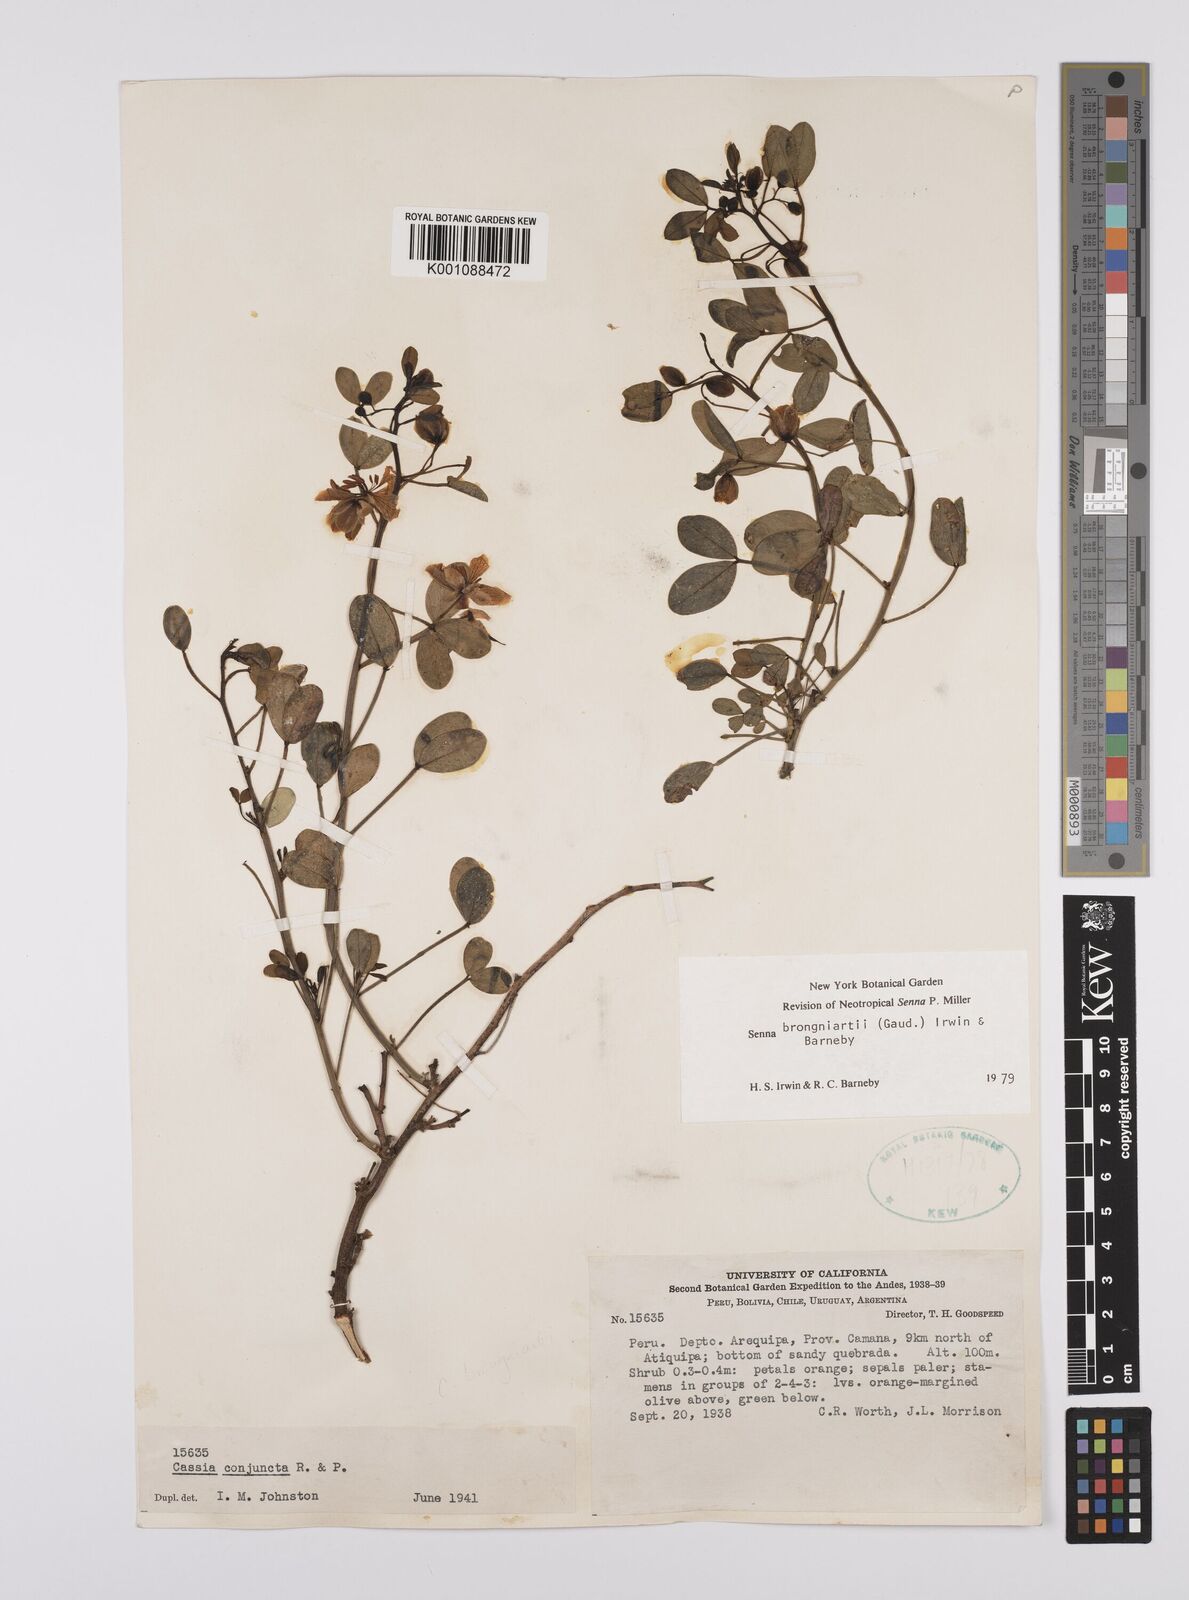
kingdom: Plantae
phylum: Tracheophyta
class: Magnoliopsida
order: Fabales
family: Fabaceae
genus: Senna
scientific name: Senna brongniartii
